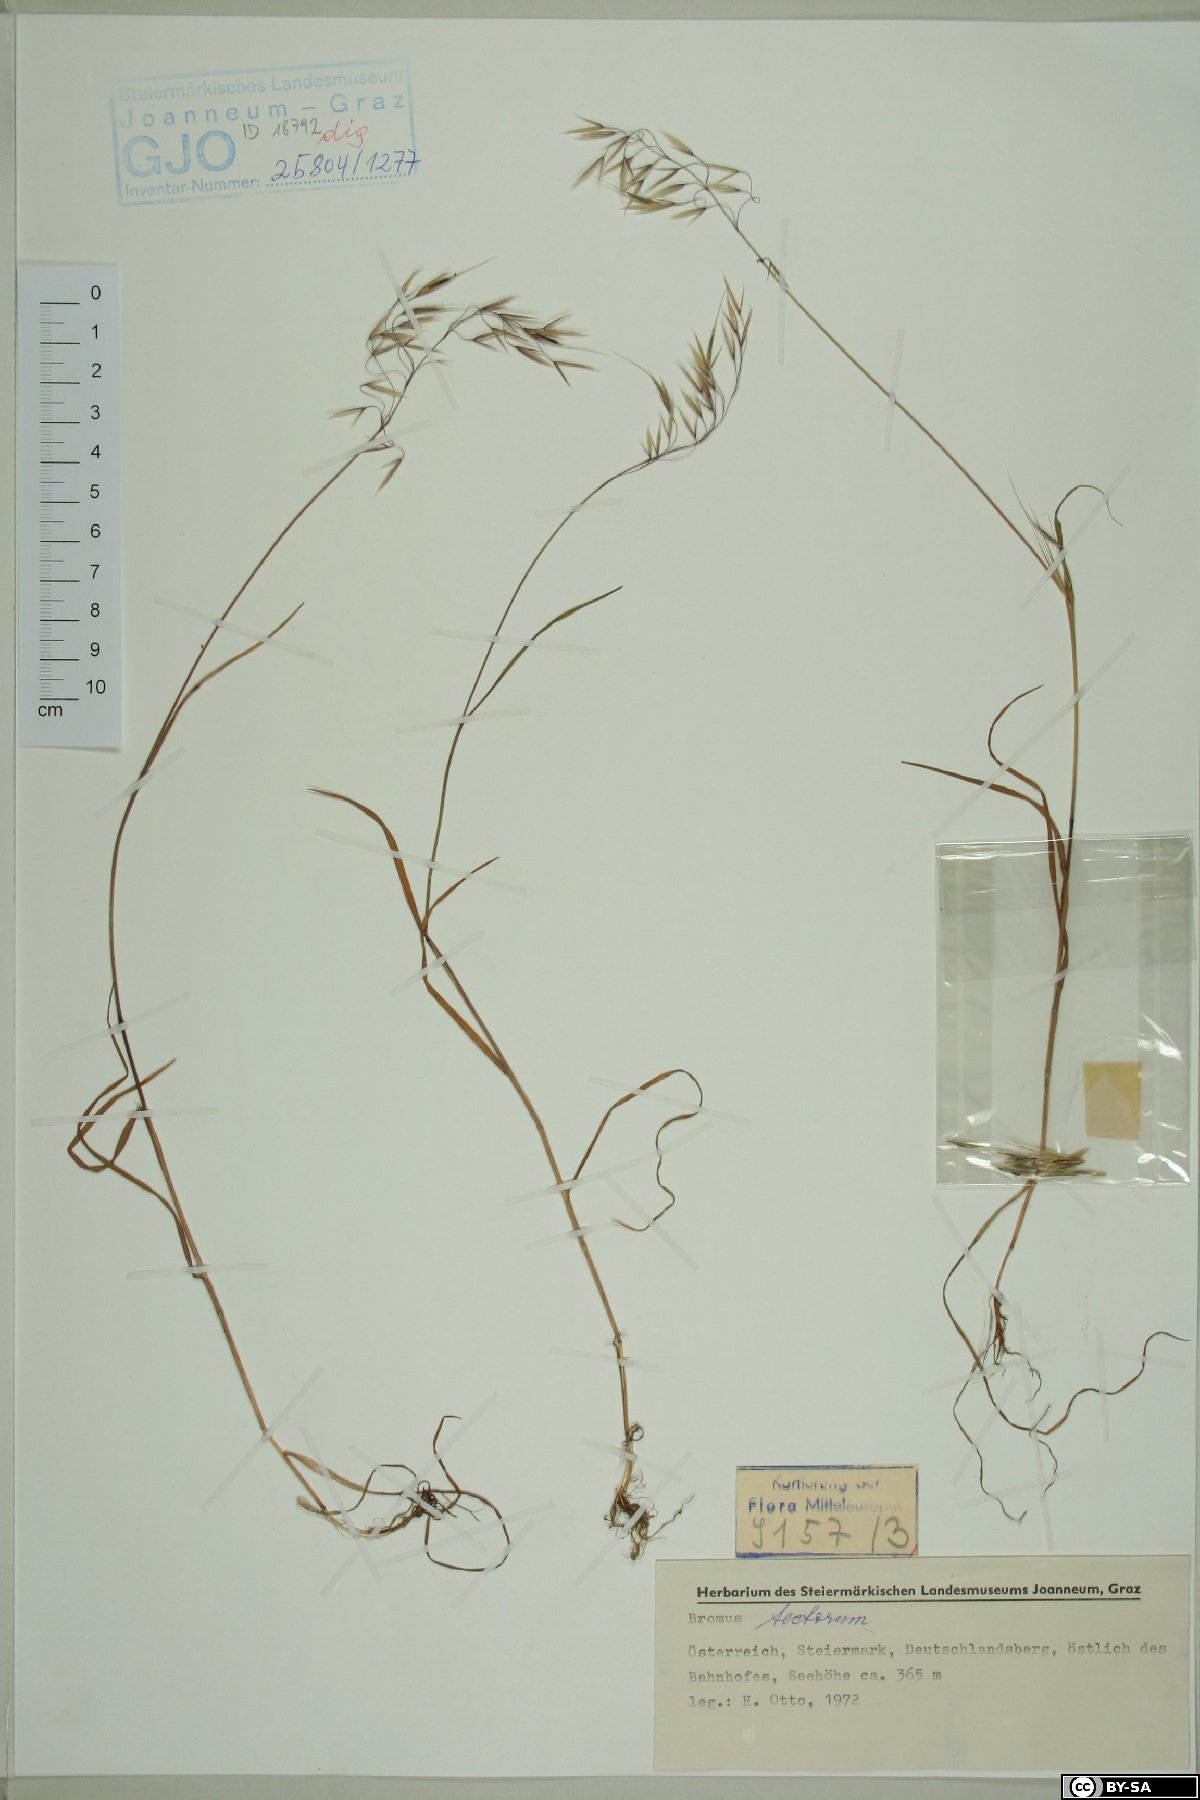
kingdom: Plantae
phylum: Tracheophyta
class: Liliopsida
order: Poales
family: Poaceae
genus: Bromus
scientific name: Bromus tectorum
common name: Cheatgrass
